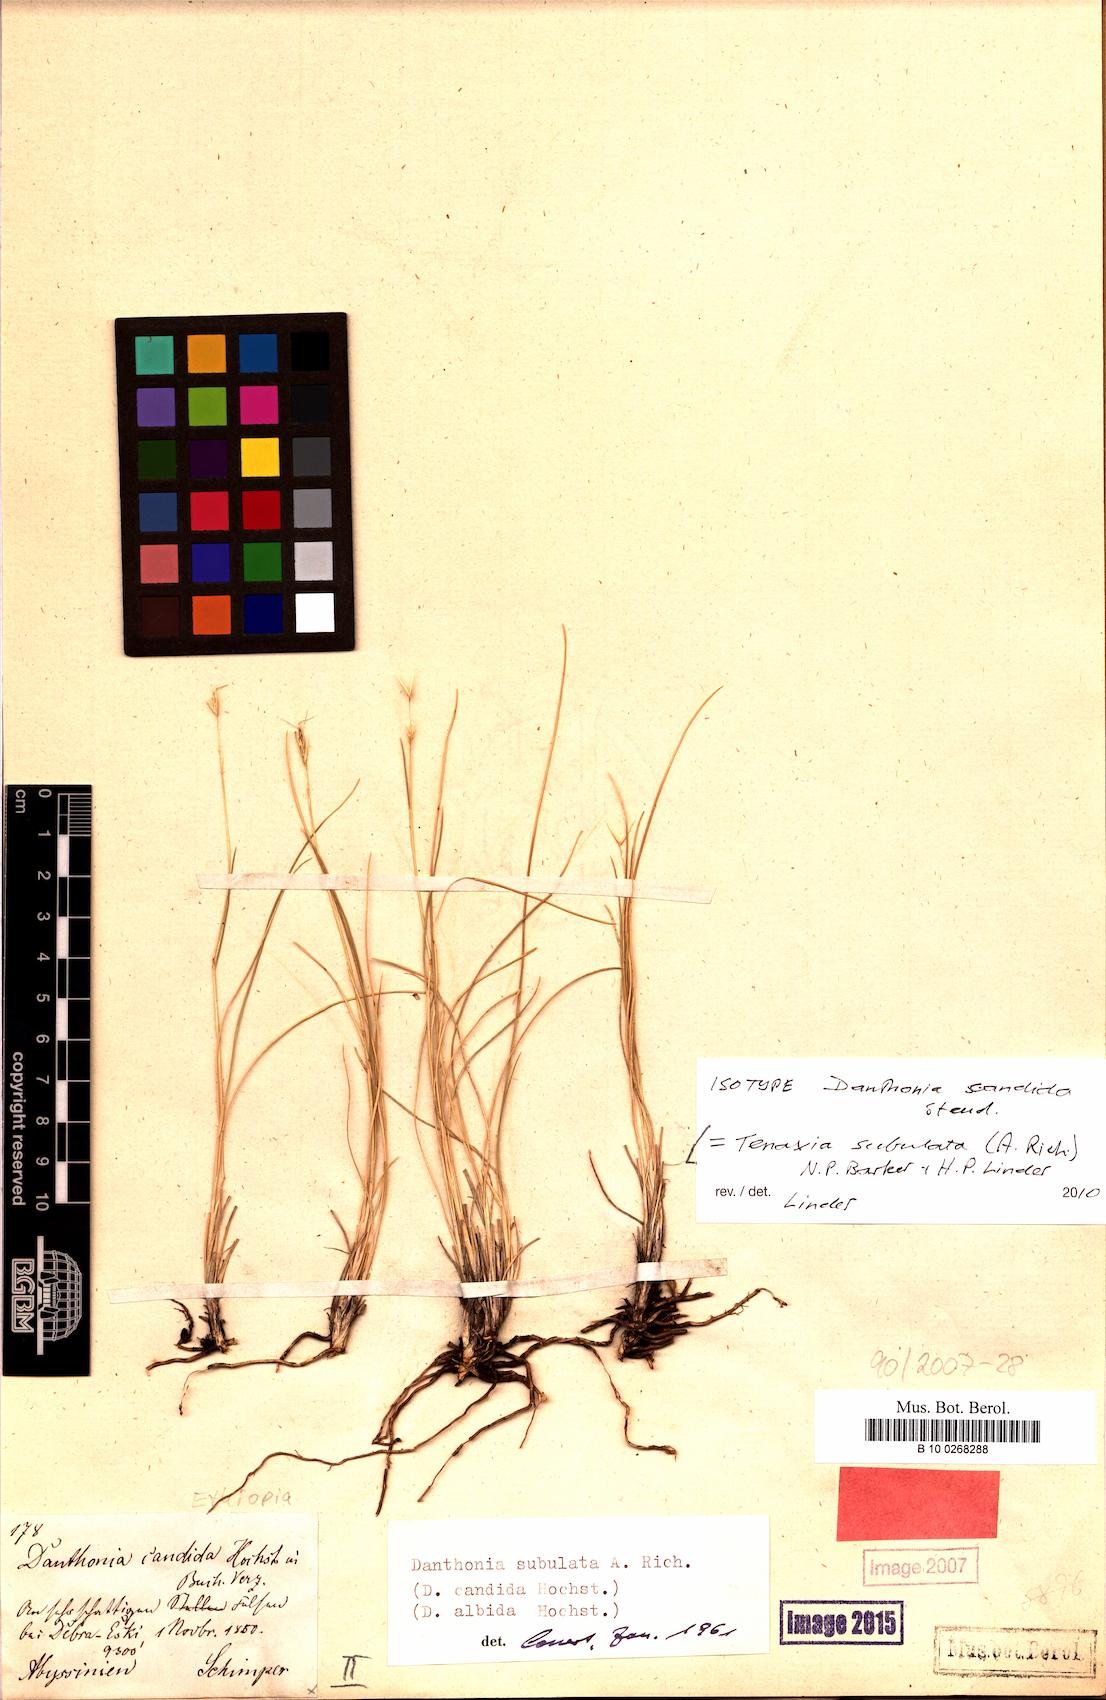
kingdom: Plantae
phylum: Tracheophyta
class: Liliopsida
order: Poales
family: Poaceae
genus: Tenaxia
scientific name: Tenaxia subulata
